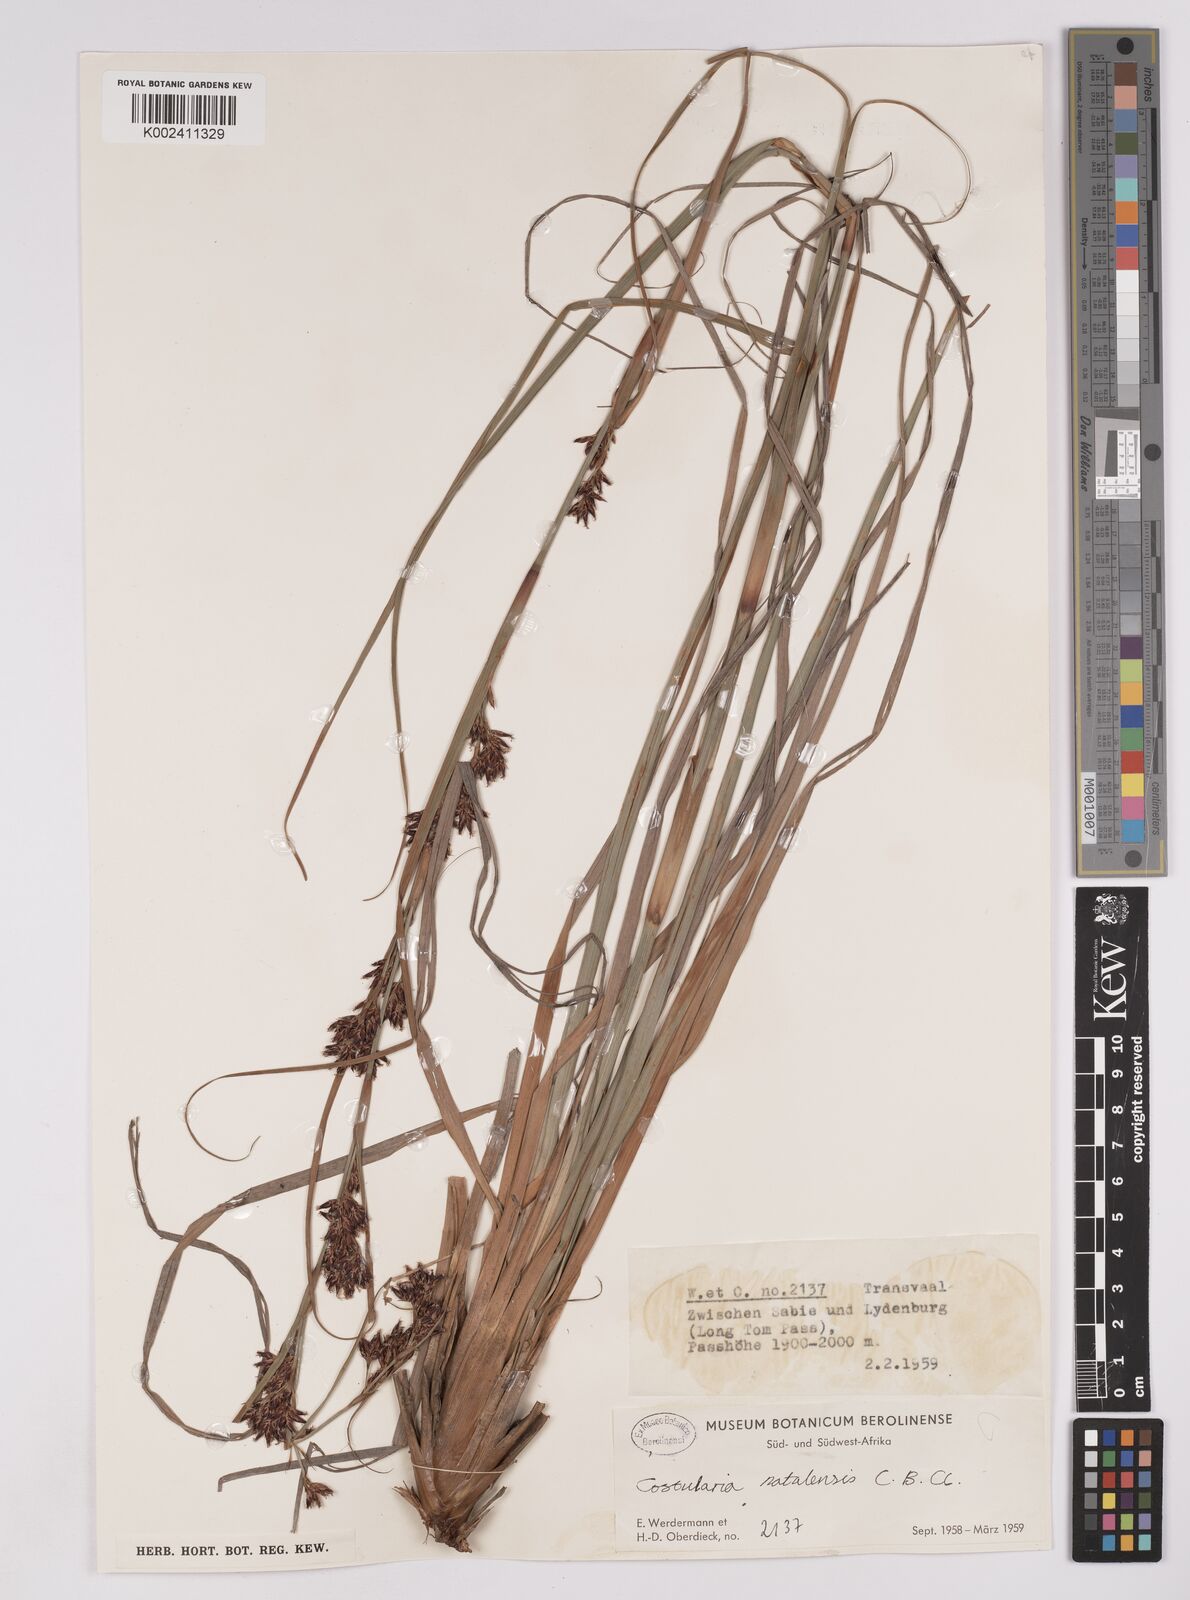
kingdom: Plantae
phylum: Tracheophyta
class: Liliopsida
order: Poales
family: Cyperaceae
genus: Costularia
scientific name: Costularia natalensis
